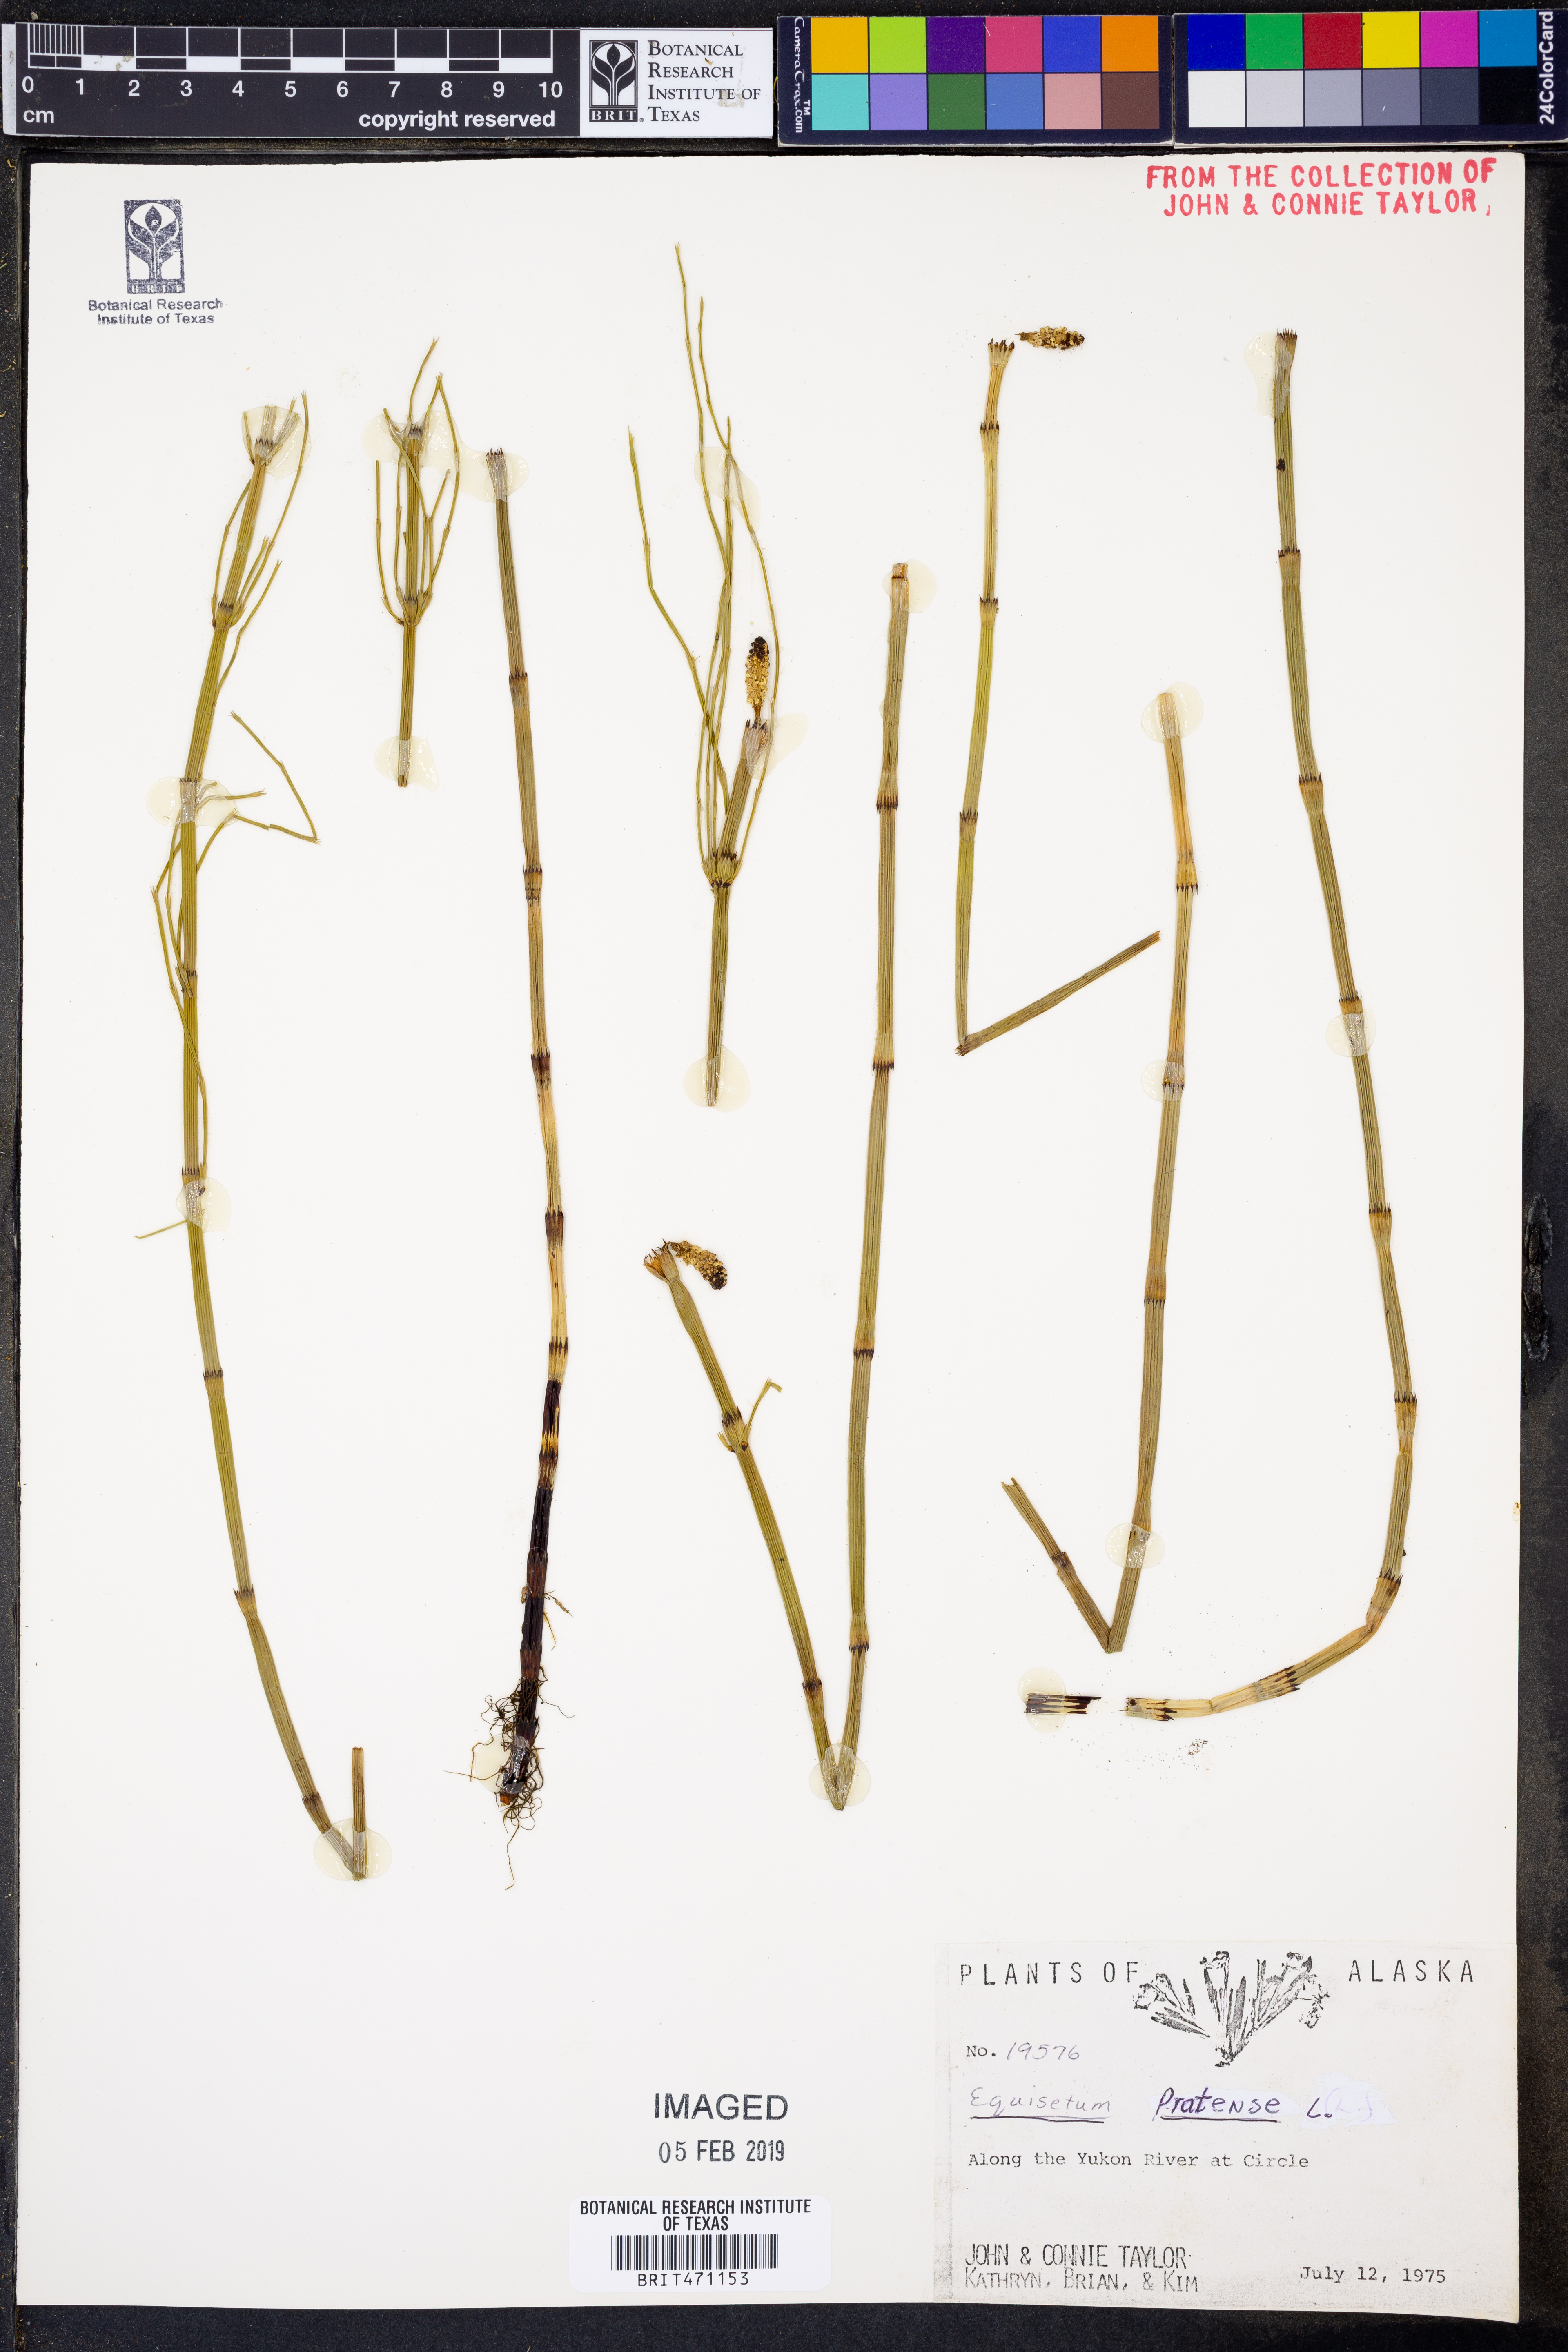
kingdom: Plantae
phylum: Tracheophyta
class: Polypodiopsida
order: Equisetales
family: Equisetaceae
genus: Equisetum
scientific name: Equisetum pratense
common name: Meadow horsetail
